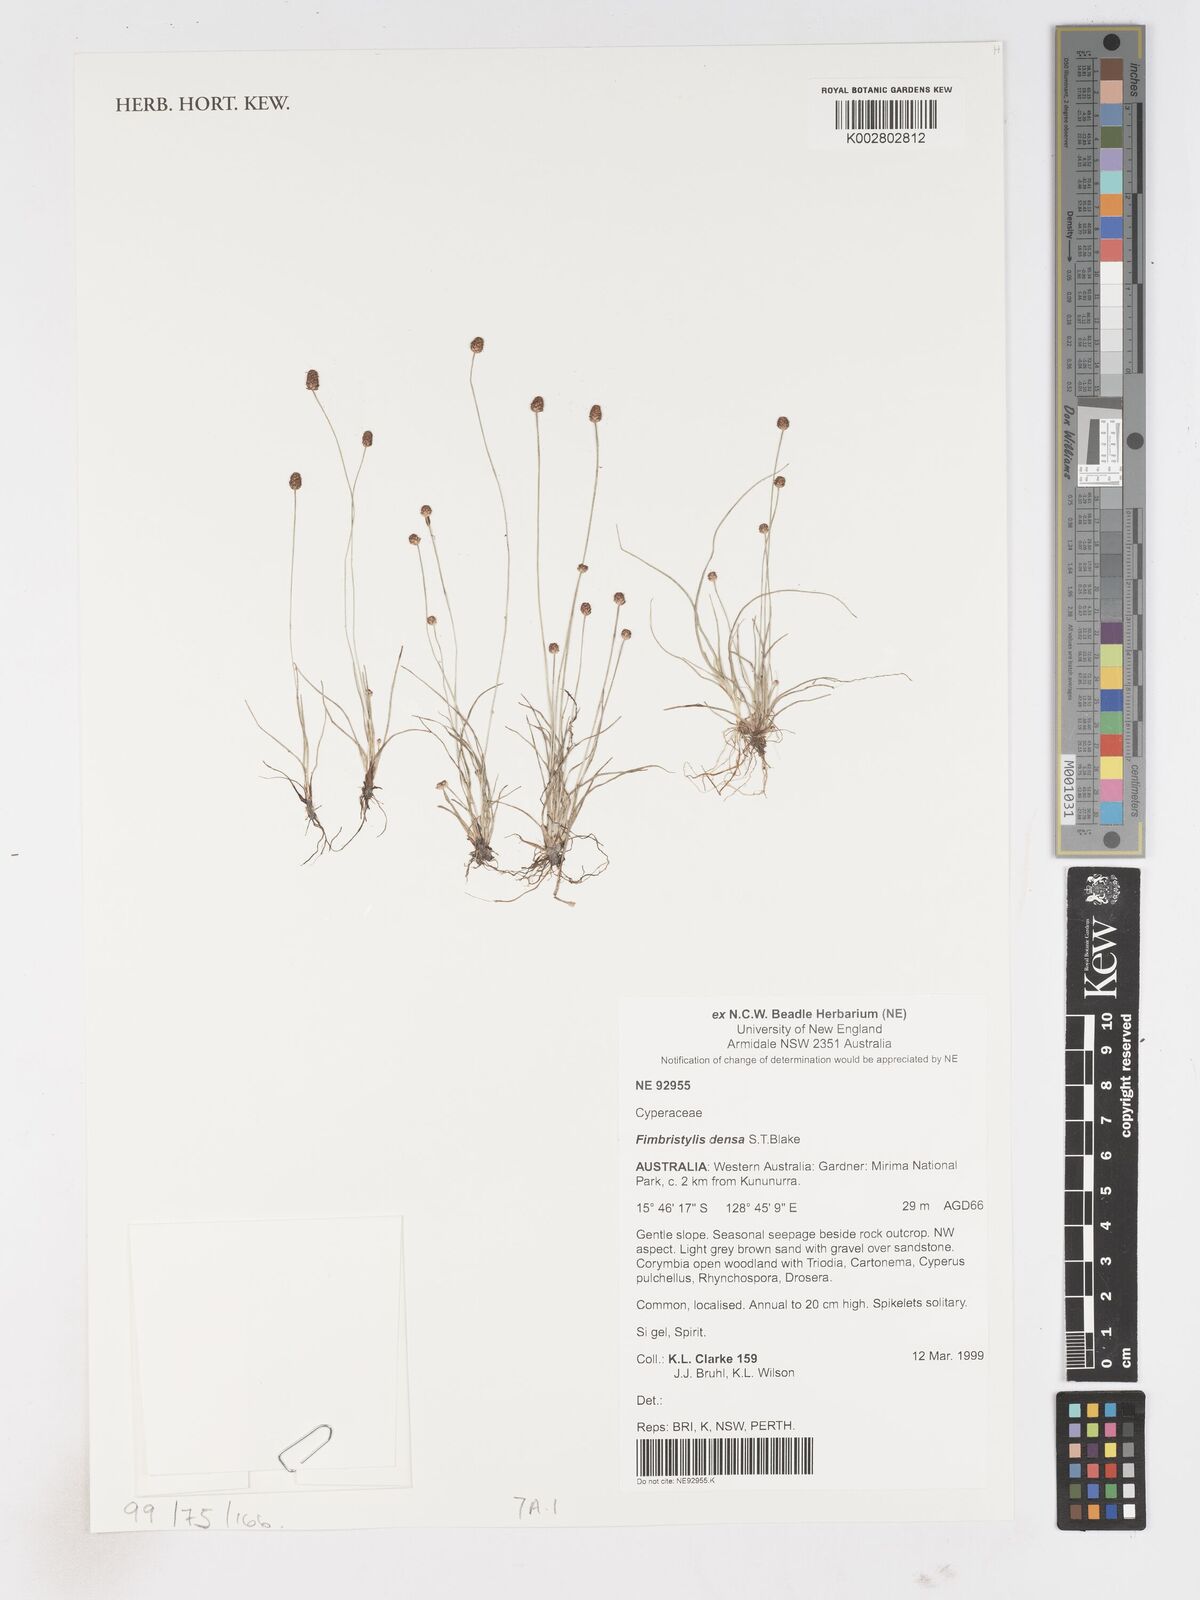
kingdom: Plantae
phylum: Tracheophyta
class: Liliopsida
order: Poales
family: Cyperaceae
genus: Fimbristylis
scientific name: Fimbristylis densa
